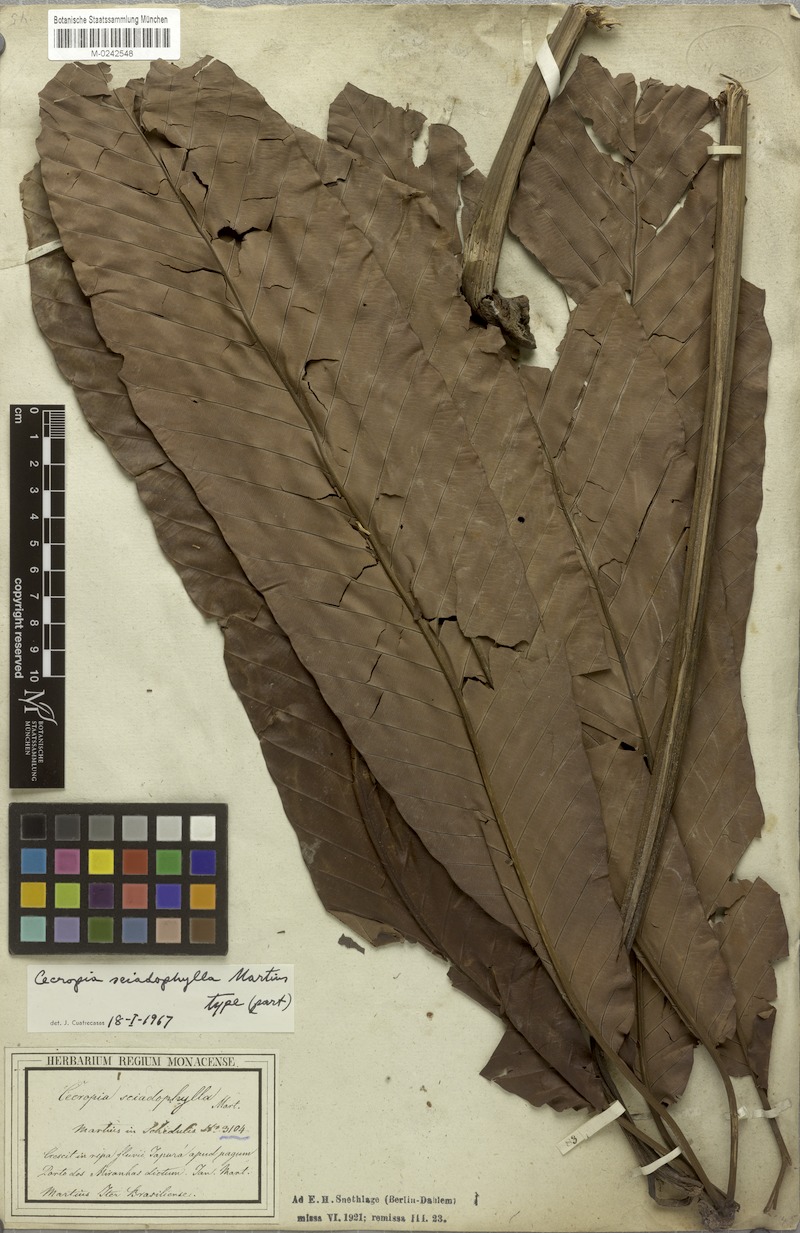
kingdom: Plantae
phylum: Tracheophyta
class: Magnoliopsida
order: Rosales
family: Urticaceae
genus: Cecropia
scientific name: Cecropia sciadophylla
